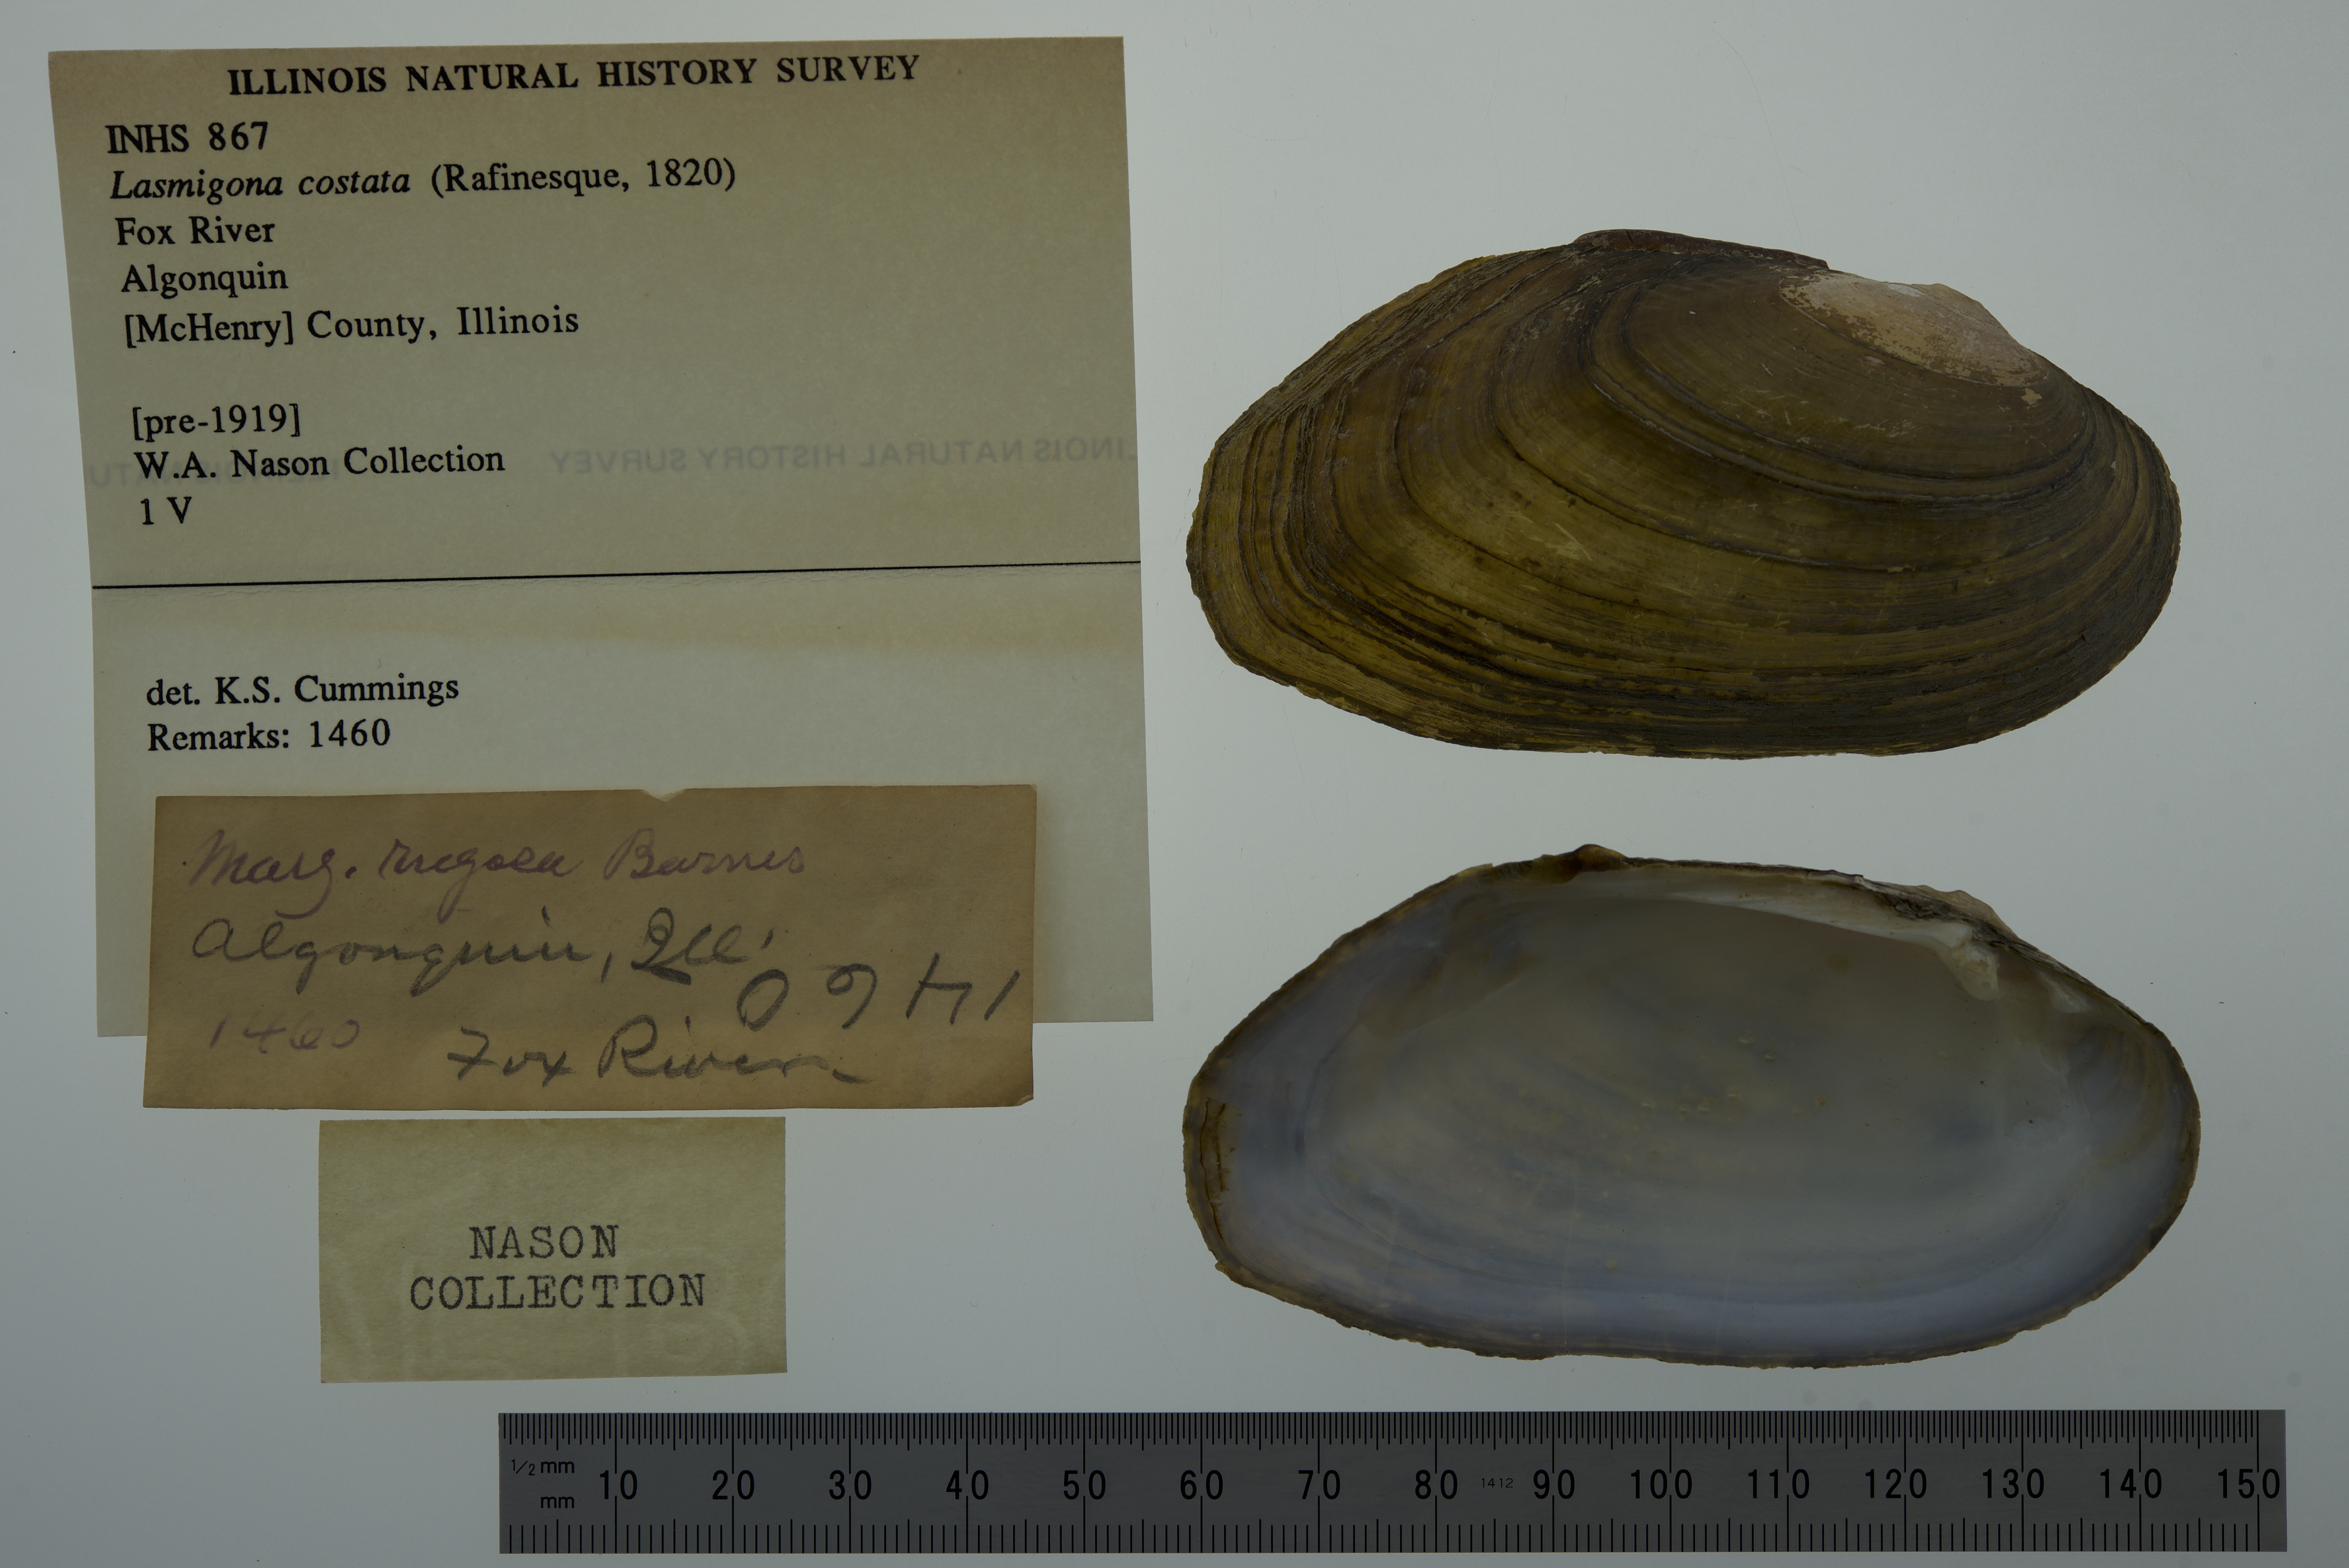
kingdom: Animalia
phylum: Mollusca
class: Bivalvia
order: Unionida
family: Unionidae
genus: Lasmigona
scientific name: Lasmigona costata
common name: Flutedshell
